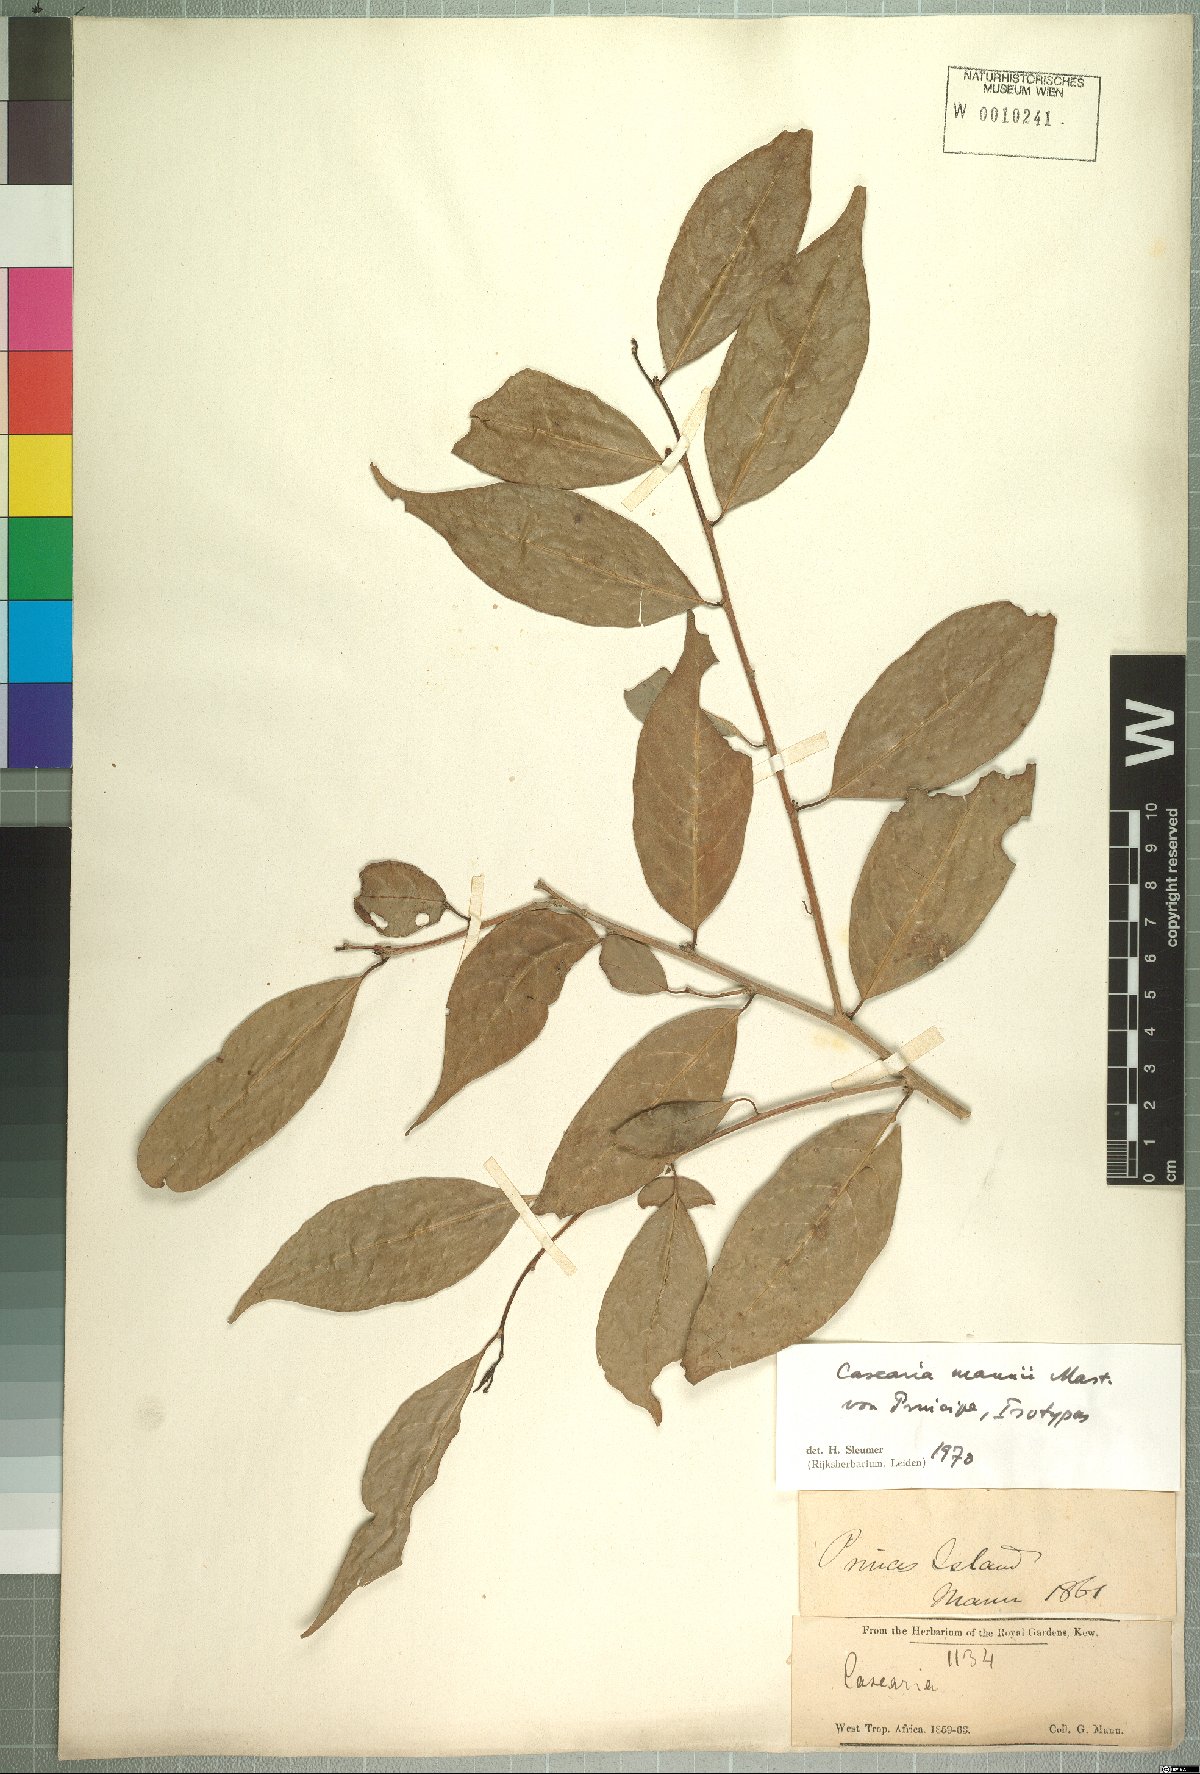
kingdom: Plantae
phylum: Tracheophyta
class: Magnoliopsida
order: Malpighiales
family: Salicaceae
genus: Casearia
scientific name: Casearia barteri
